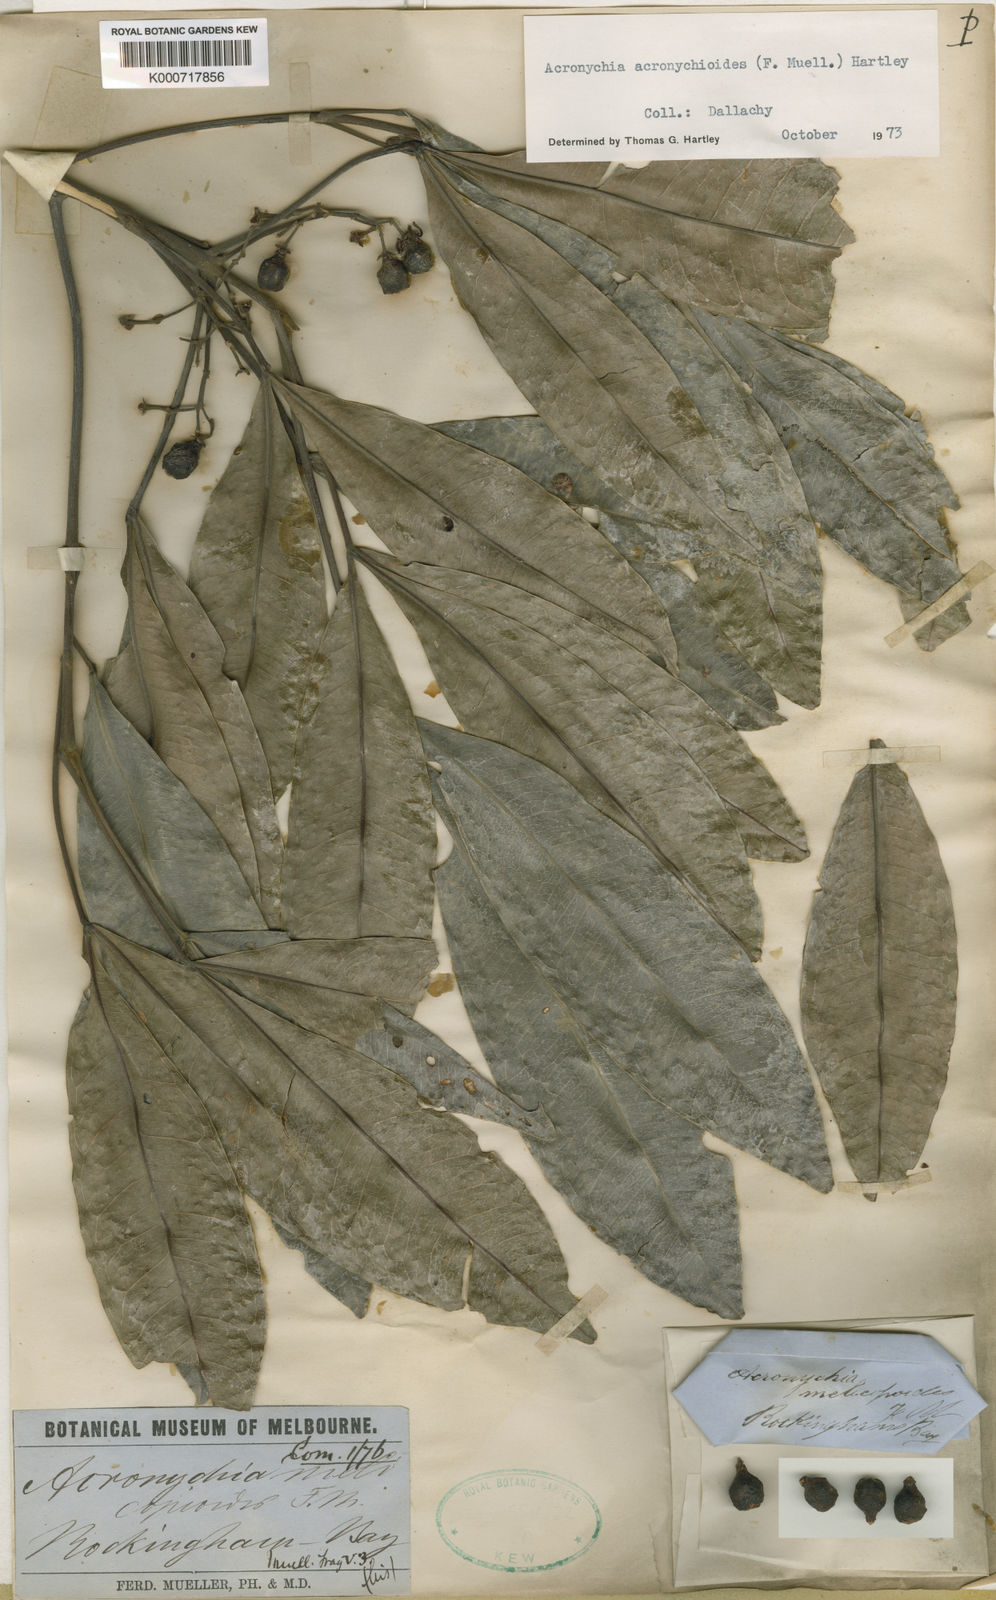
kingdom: Plantae
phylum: Tracheophyta
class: Magnoliopsida
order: Sapindales
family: Rutaceae
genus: Acronychia
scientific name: Acronychia acronychioides
